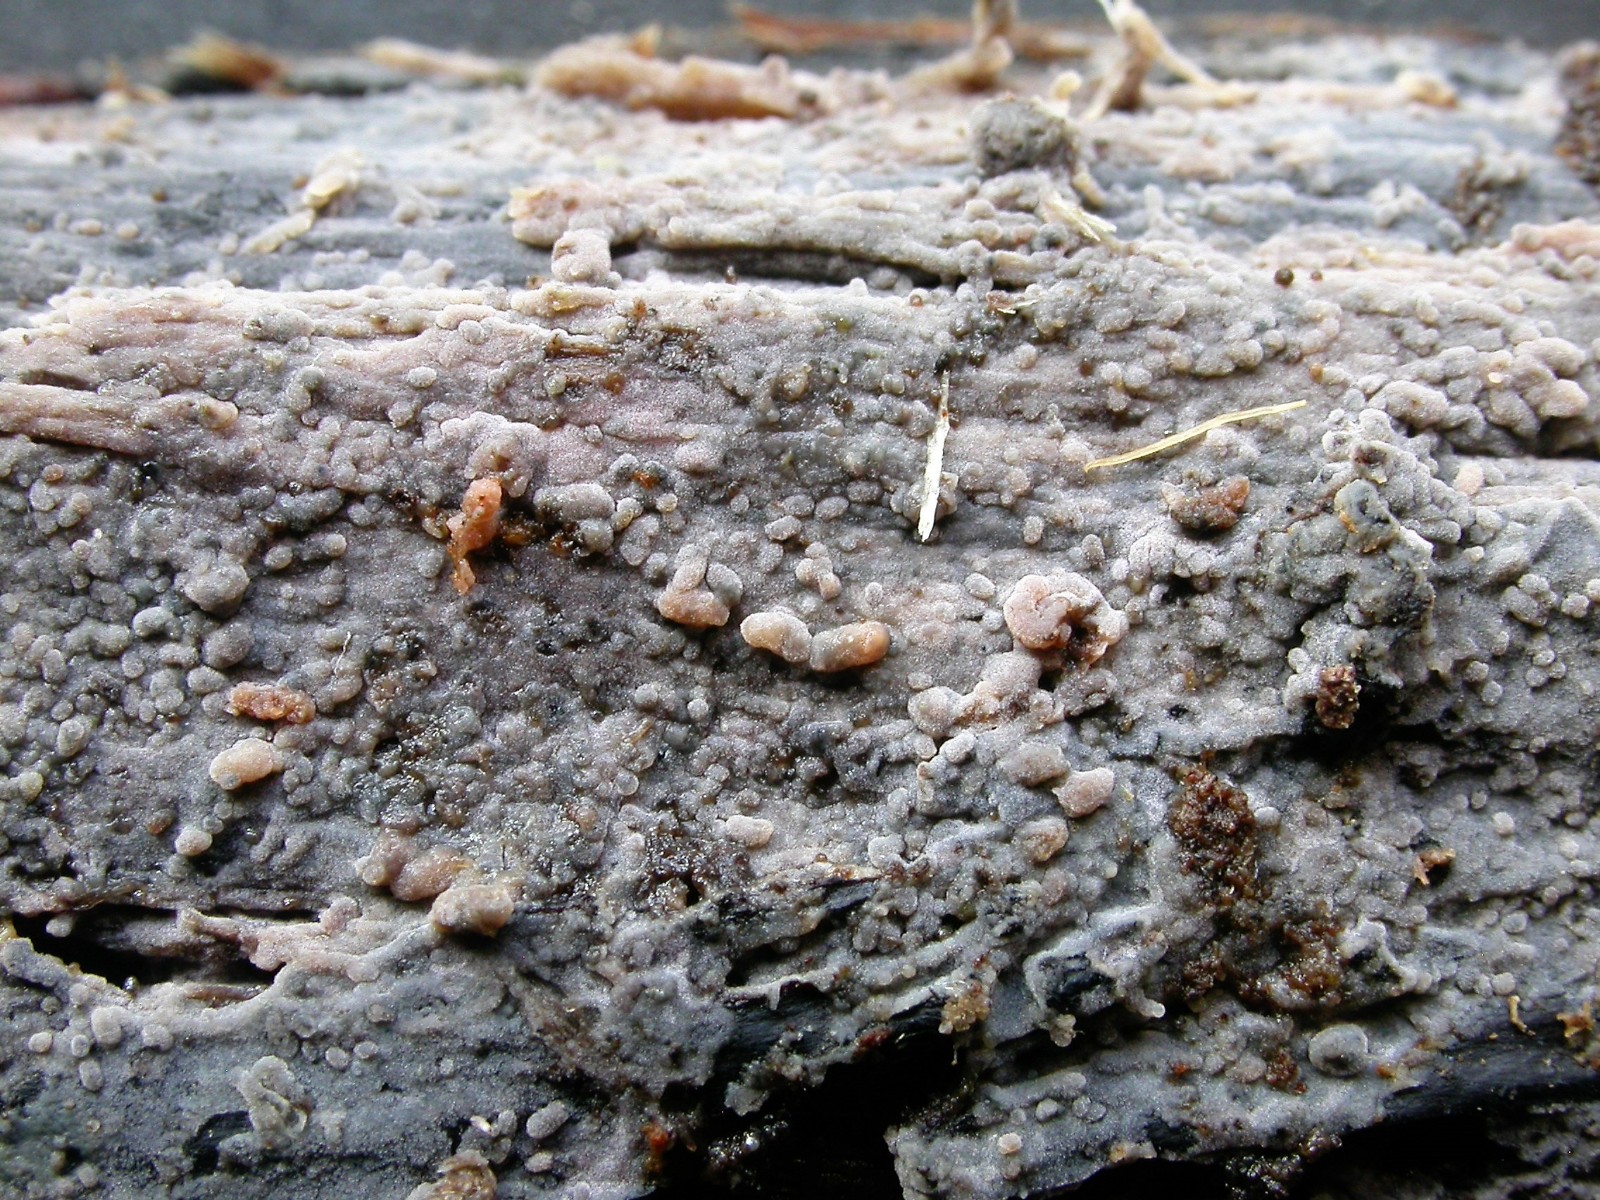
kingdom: Fungi
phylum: Basidiomycota
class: Agaricomycetes
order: Polyporales
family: Meruliaceae
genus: Scopuloides
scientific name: Scopuloides rimosa
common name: dughinde
